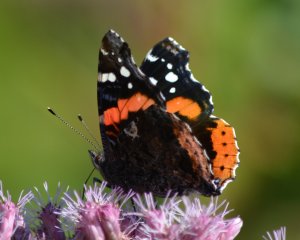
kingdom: Animalia
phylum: Arthropoda
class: Insecta
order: Lepidoptera
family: Nymphalidae
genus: Vanessa
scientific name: Vanessa atalanta
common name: Red Admiral
